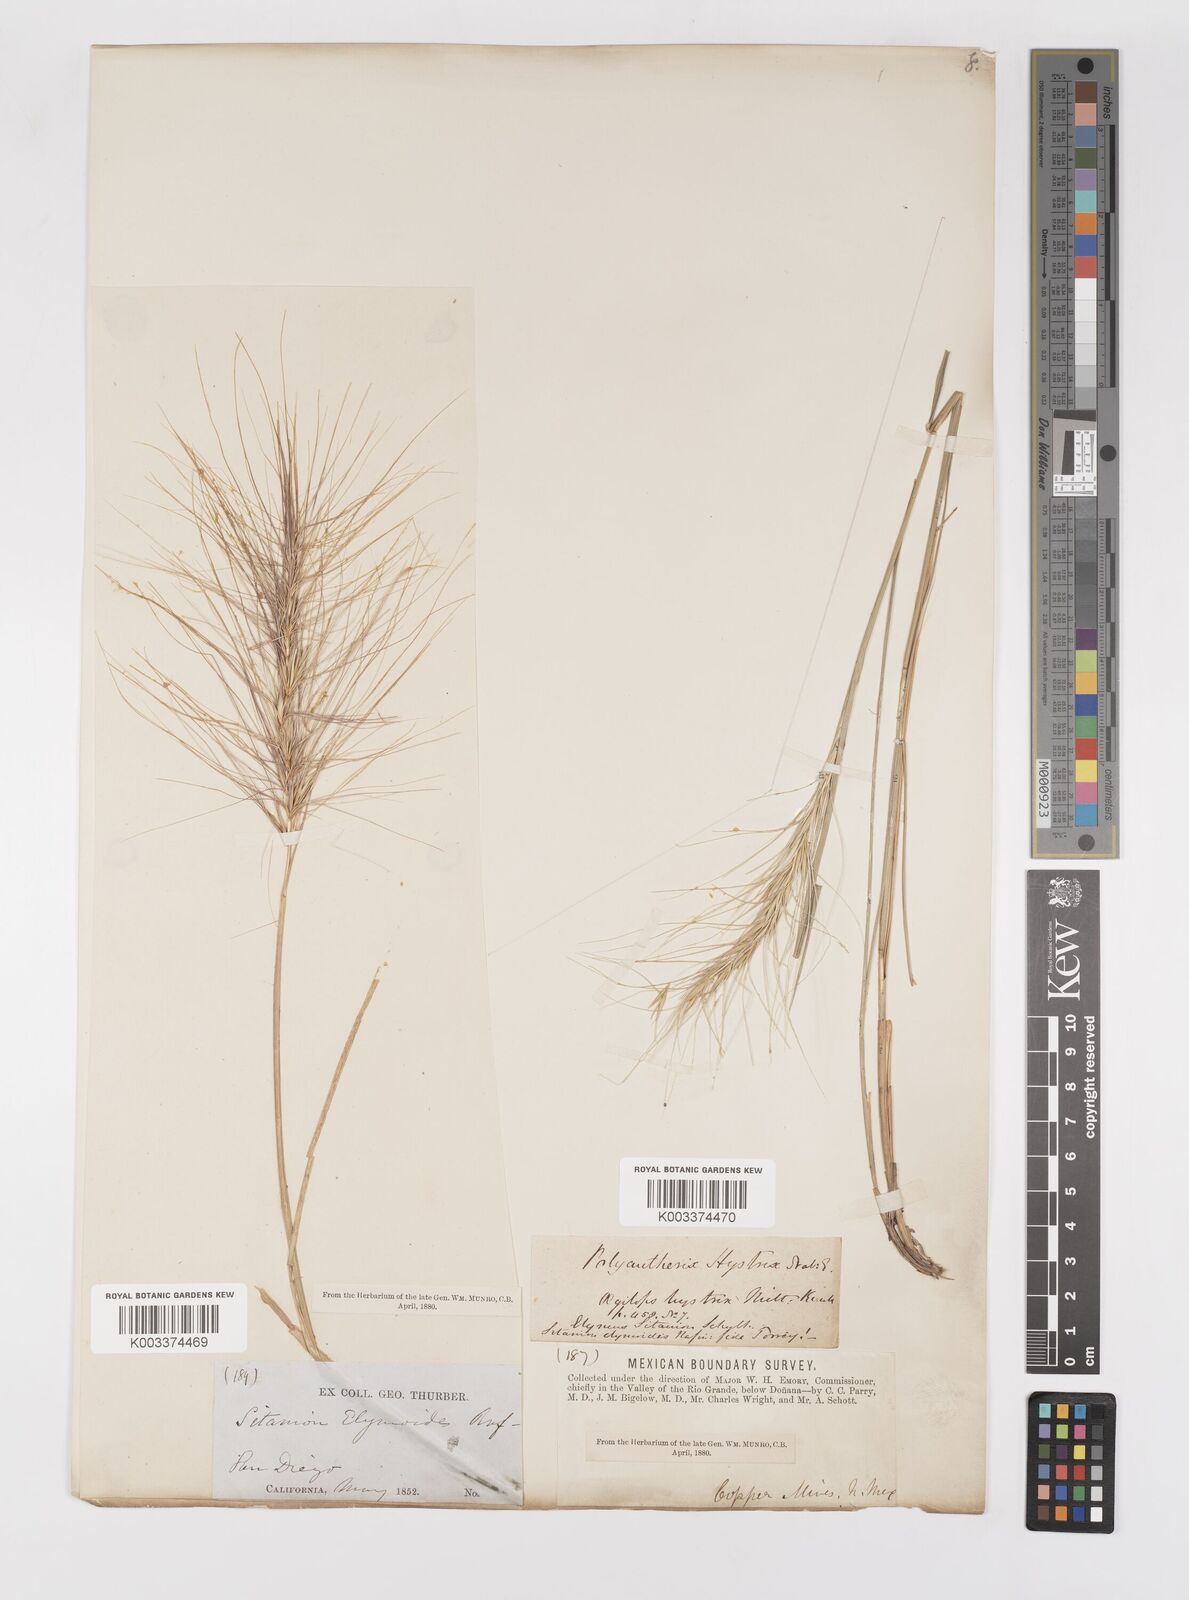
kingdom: Plantae
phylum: Tracheophyta
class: Liliopsida
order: Poales
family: Poaceae
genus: Elymus
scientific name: Elymus multisetus
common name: Big squirreltail
